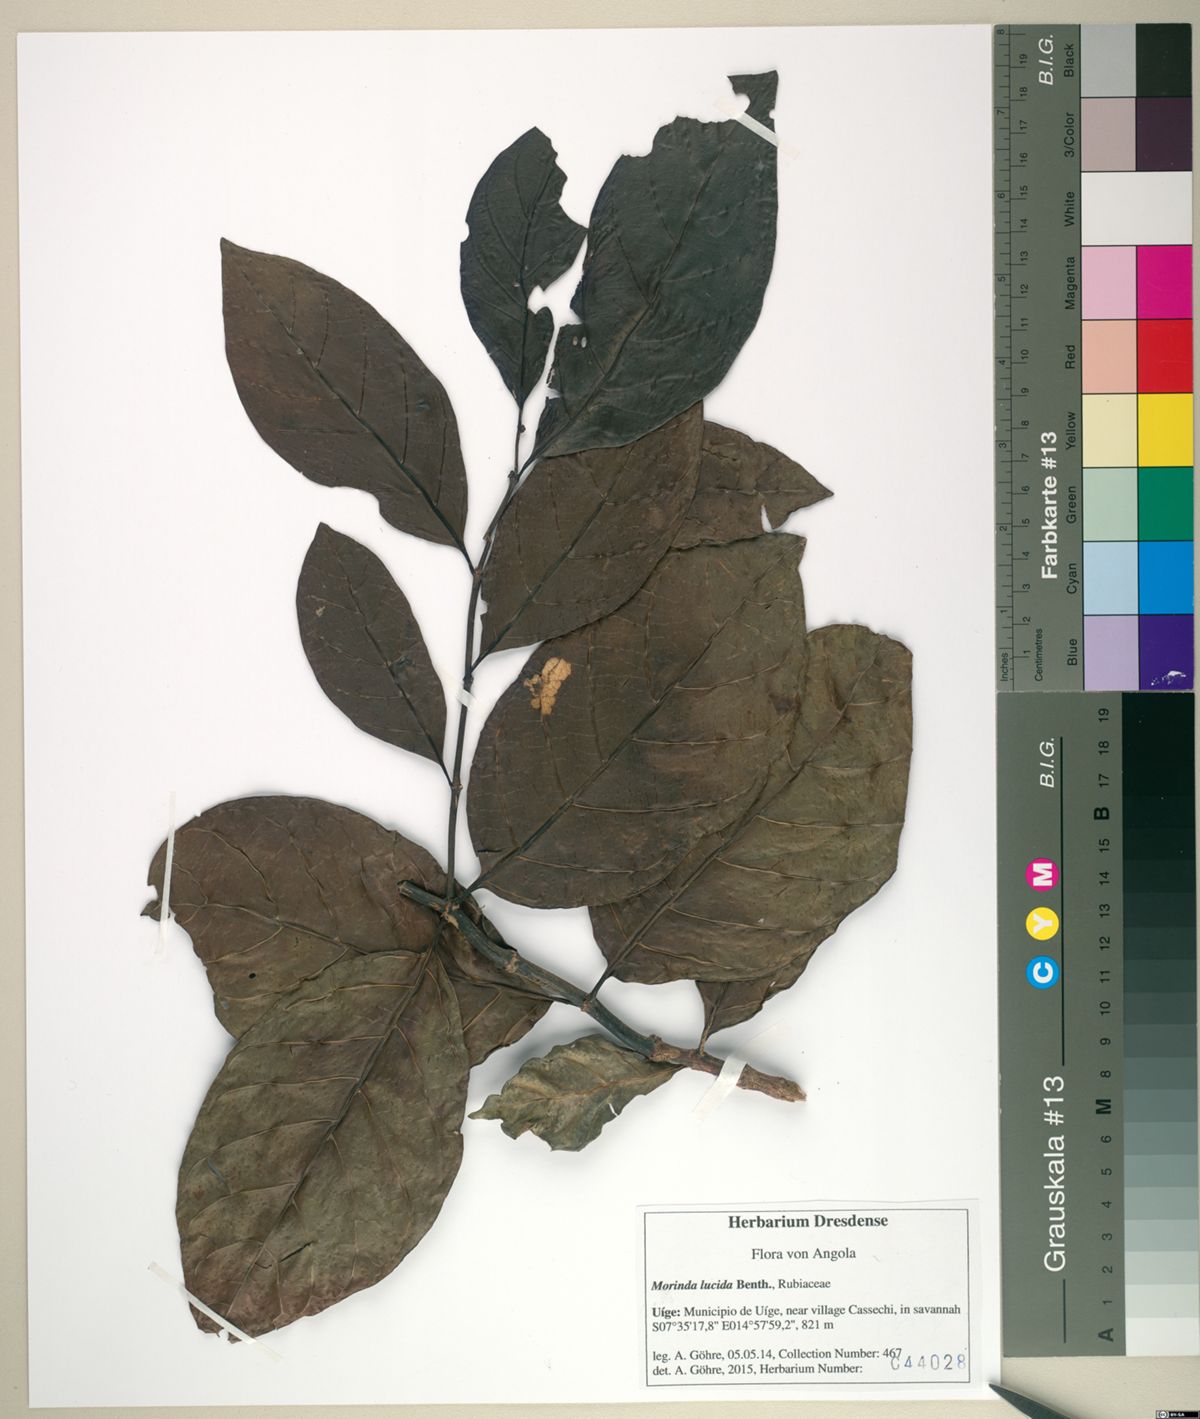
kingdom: Plantae
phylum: Tracheophyta
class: Magnoliopsida
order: Gentianales
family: Rubiaceae
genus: Morinda
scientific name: Morinda lucida
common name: Brimstonetree
